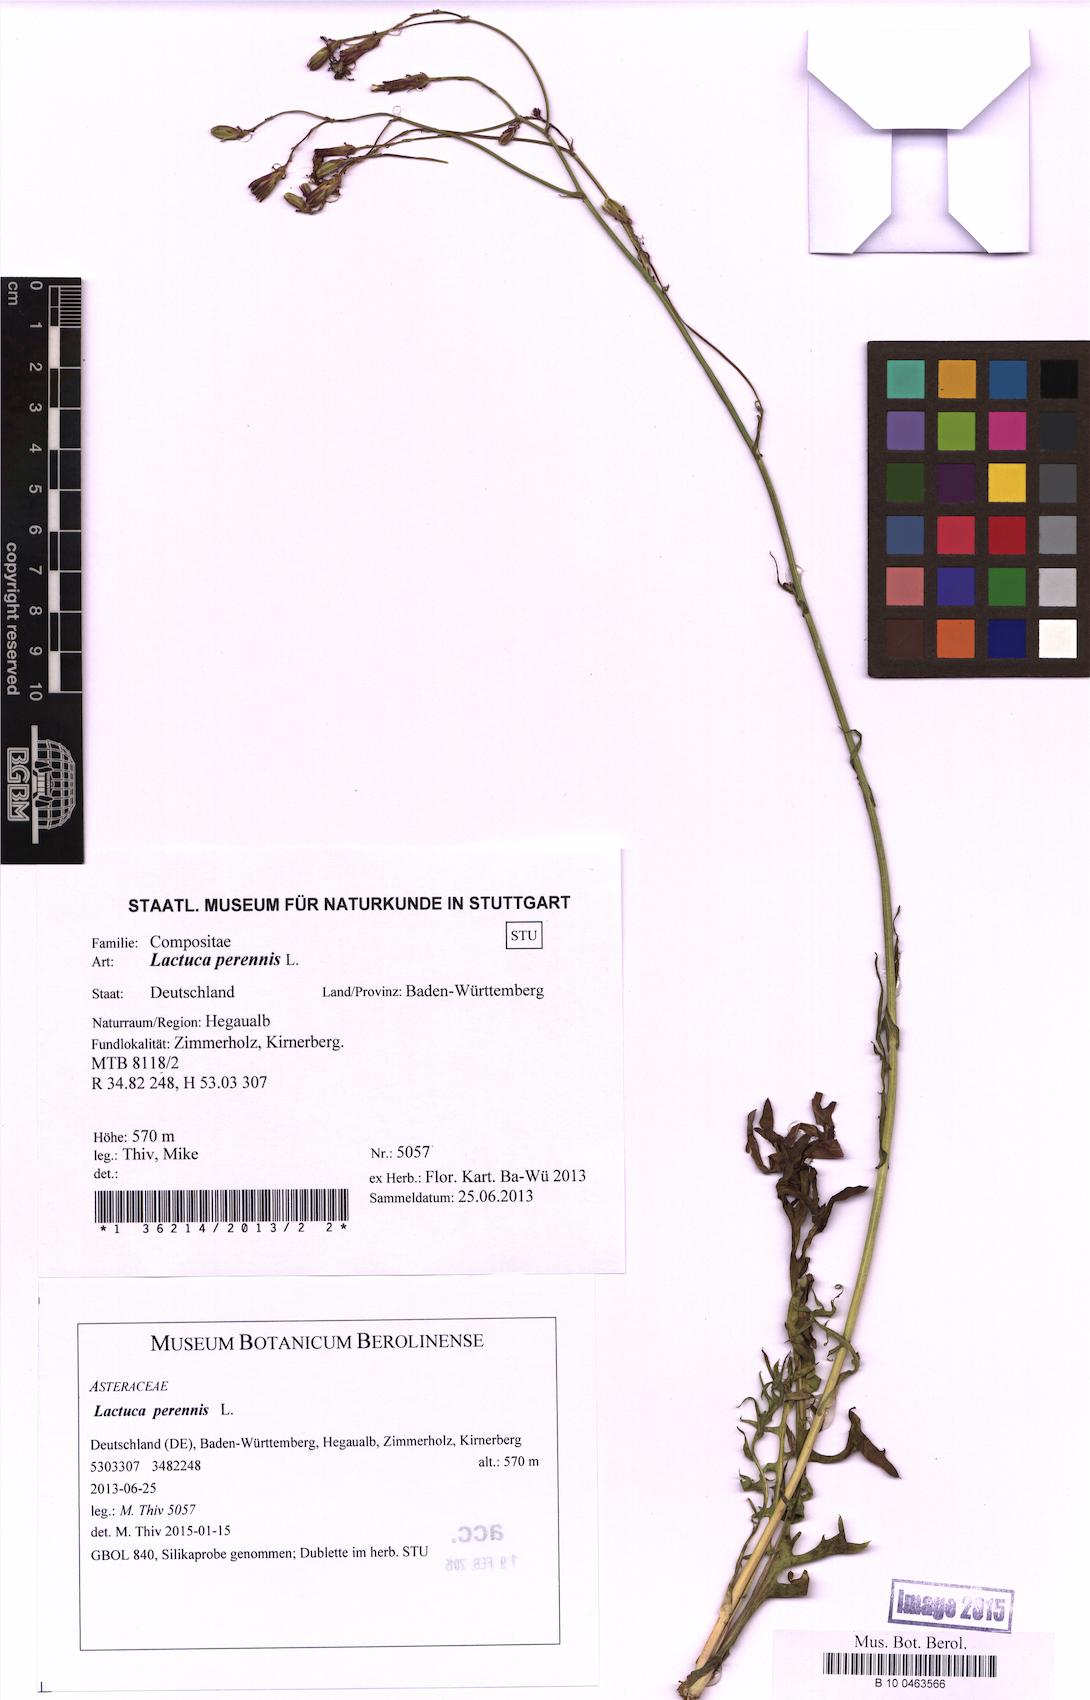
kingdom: Plantae
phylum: Tracheophyta
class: Magnoliopsida
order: Asterales
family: Asteraceae
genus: Lactuca
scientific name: Lactuca perennis
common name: Mountain lettuce
